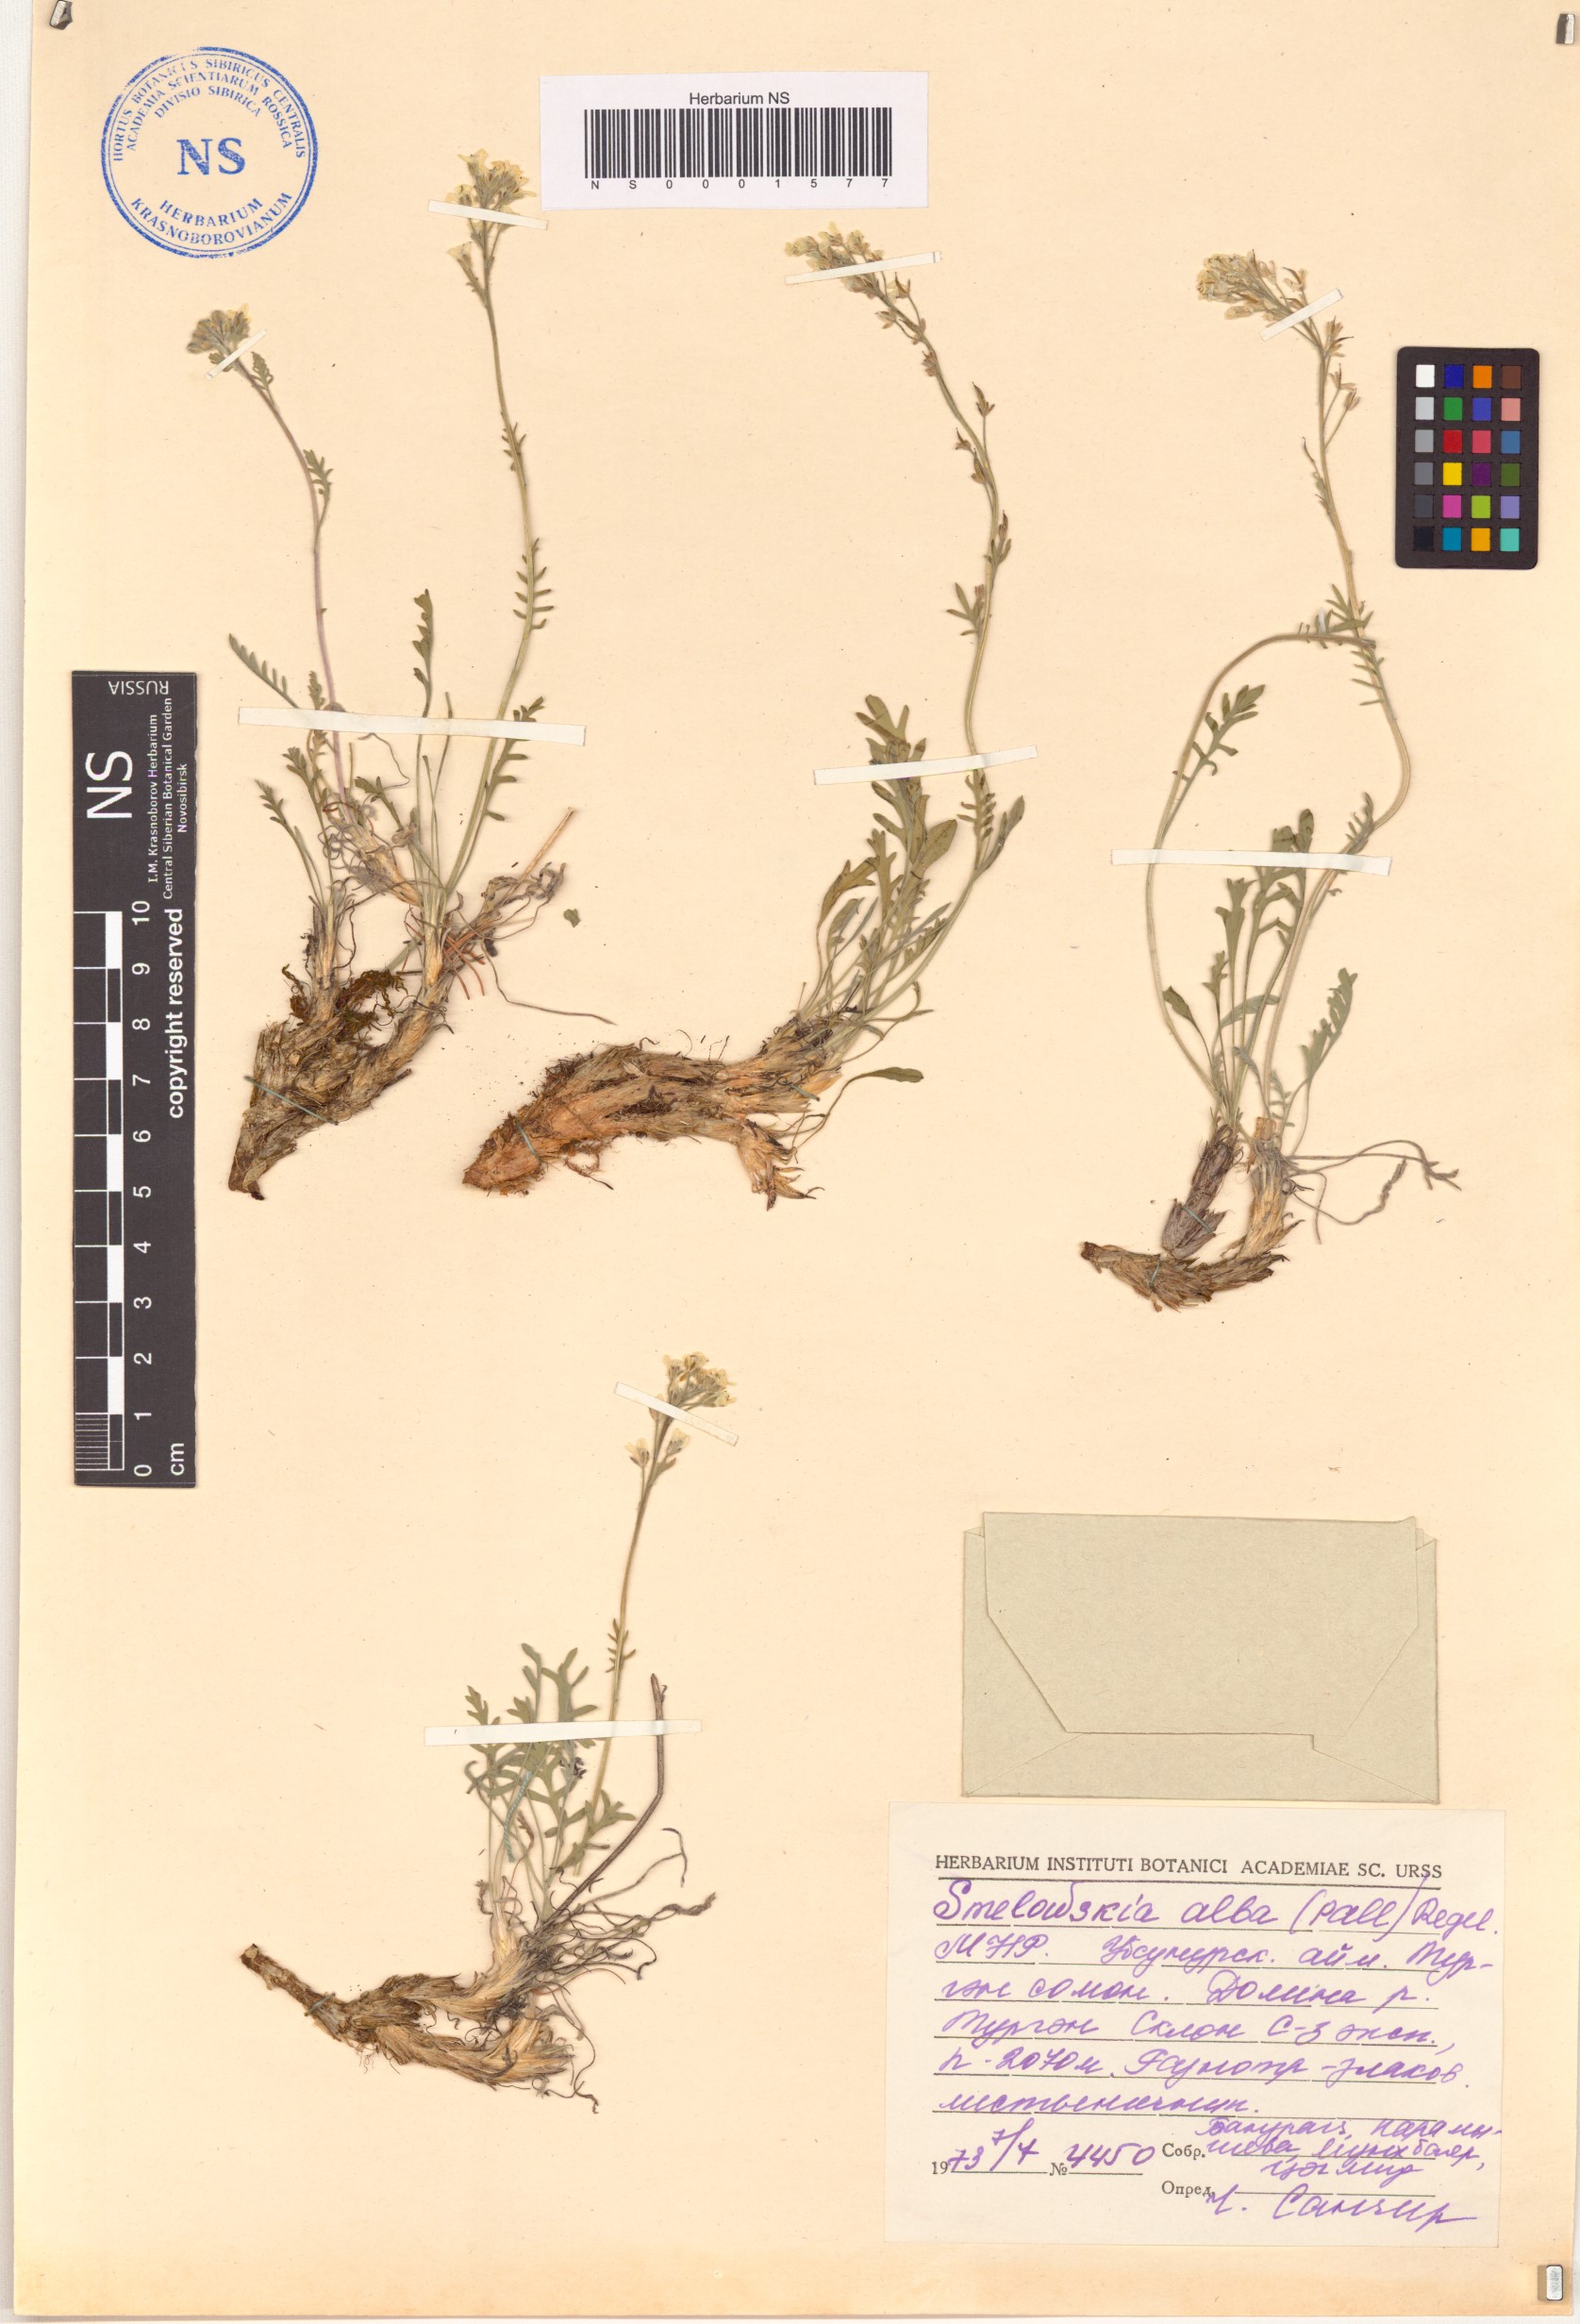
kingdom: Plantae
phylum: Tracheophyta
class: Magnoliopsida
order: Brassicales
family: Brassicaceae
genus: Smelowskia
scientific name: Smelowskia alba
